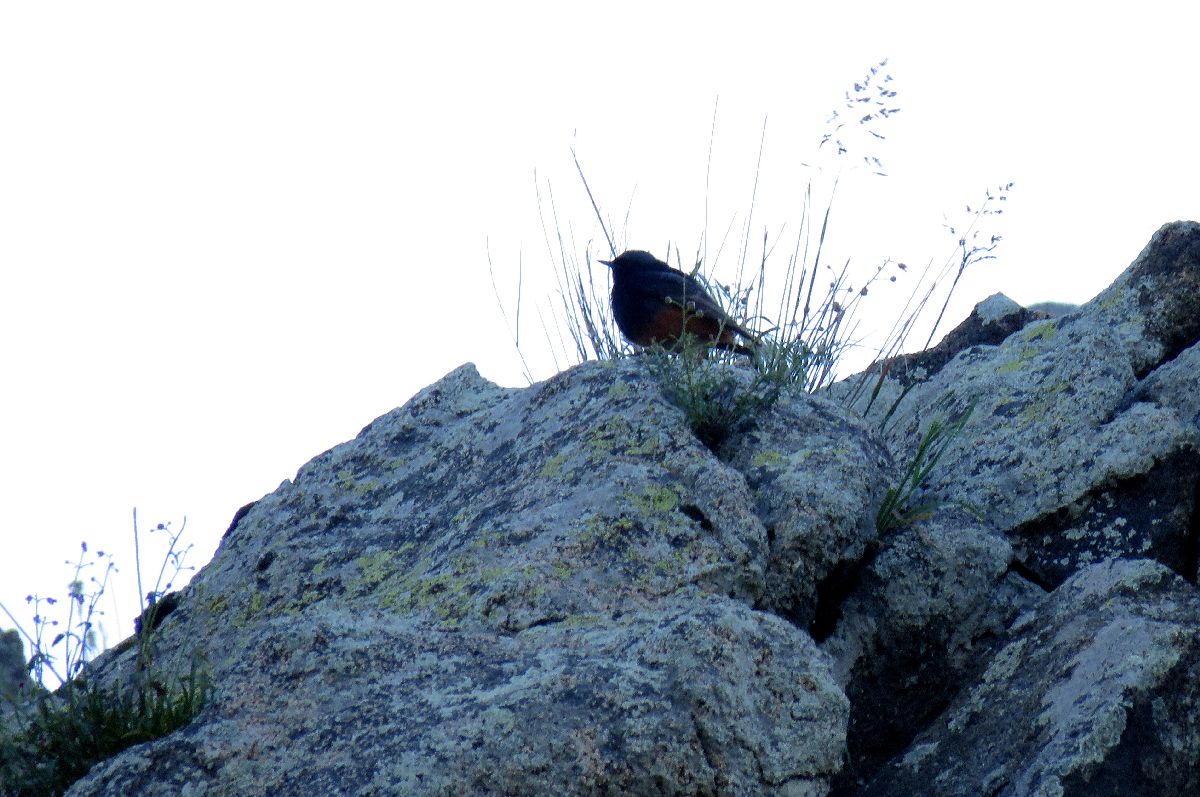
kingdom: Animalia
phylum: Chordata
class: Aves
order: Passeriformes
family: Muscicapidae
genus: Phoenicurus
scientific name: Phoenicurus ochruros
